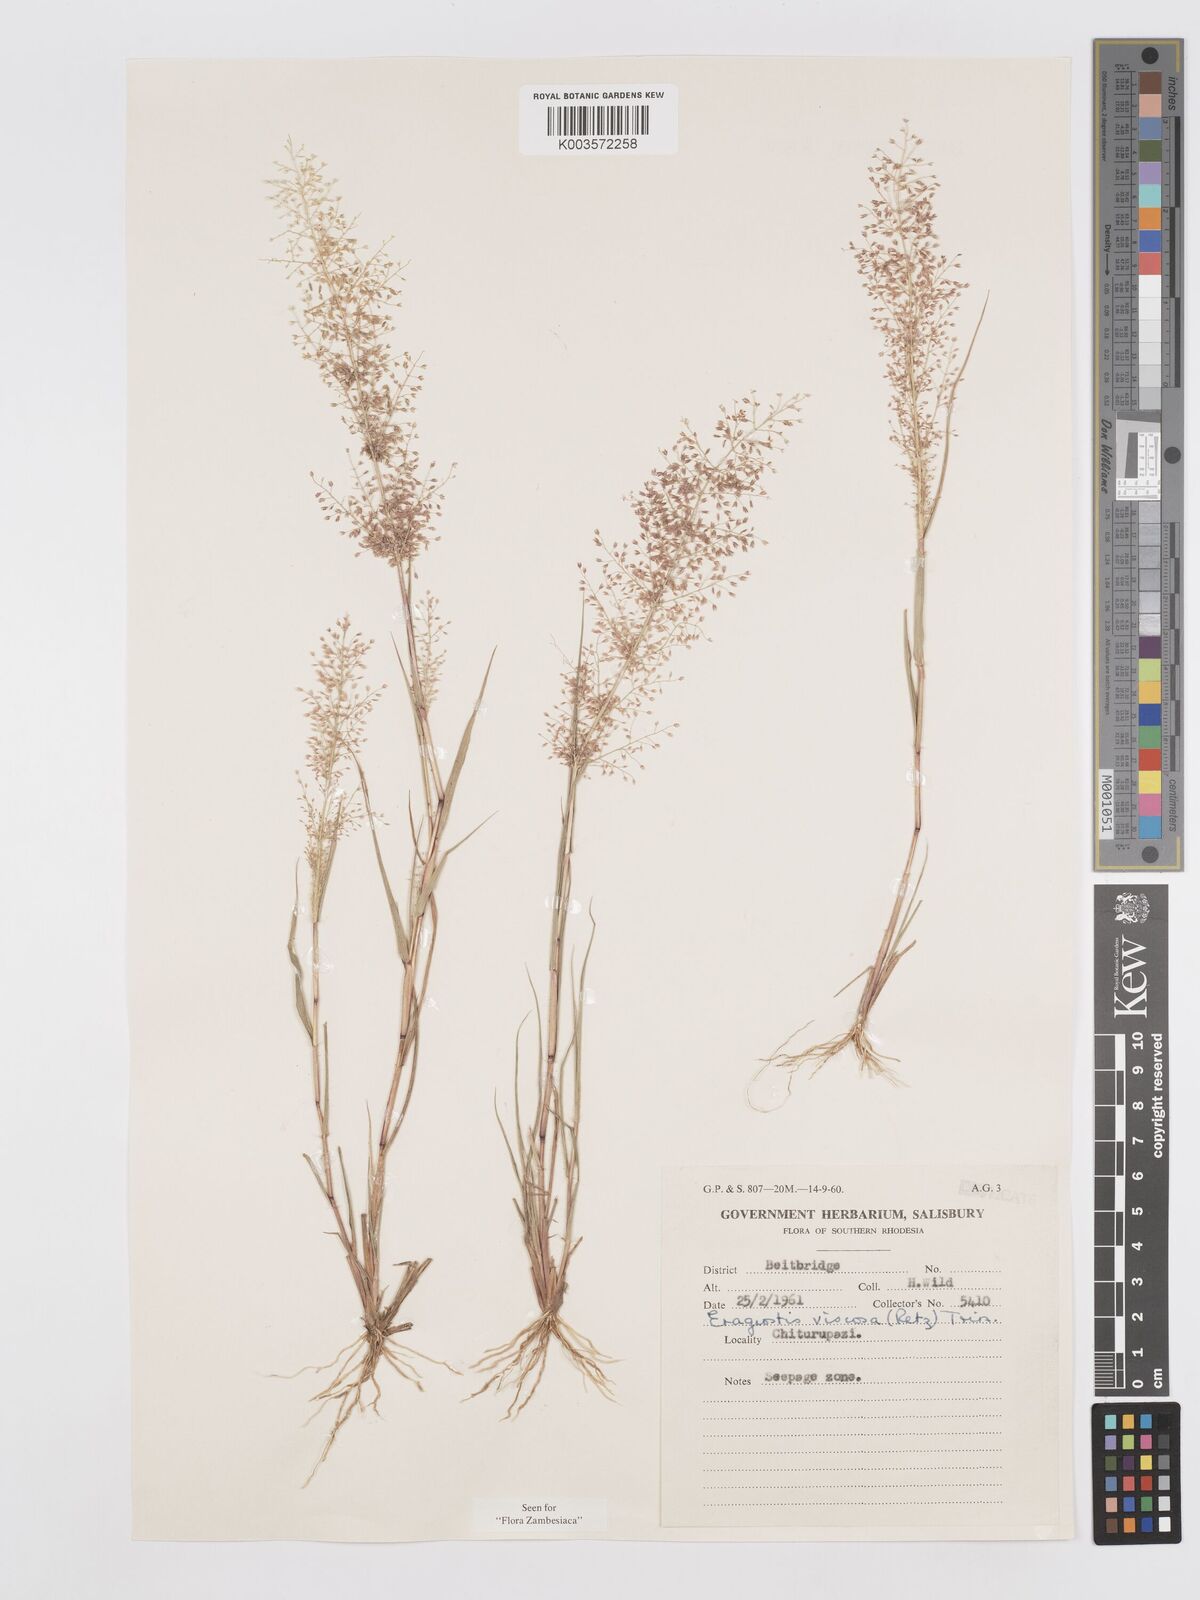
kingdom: Plantae
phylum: Tracheophyta
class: Liliopsida
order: Poales
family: Poaceae
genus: Eragrostis
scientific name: Eragrostis
